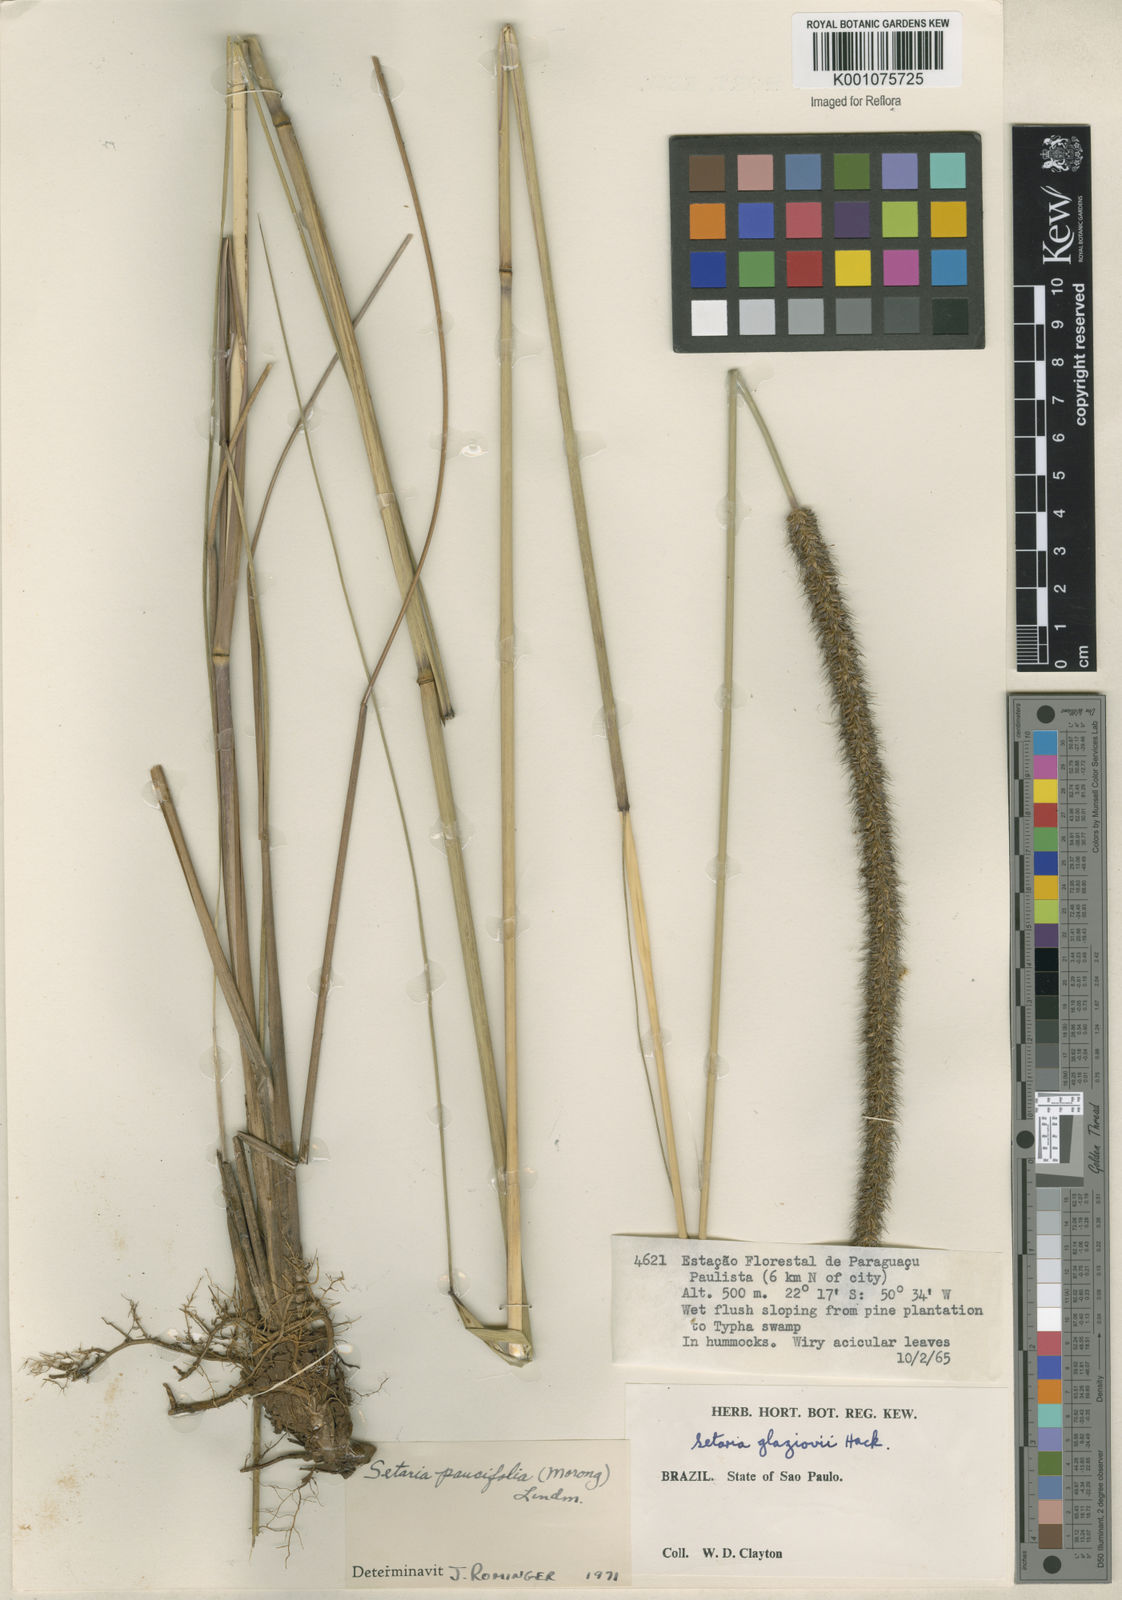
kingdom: Plantae
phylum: Tracheophyta
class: Liliopsida
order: Poales
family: Poaceae
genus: Setaria
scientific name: Setaria
